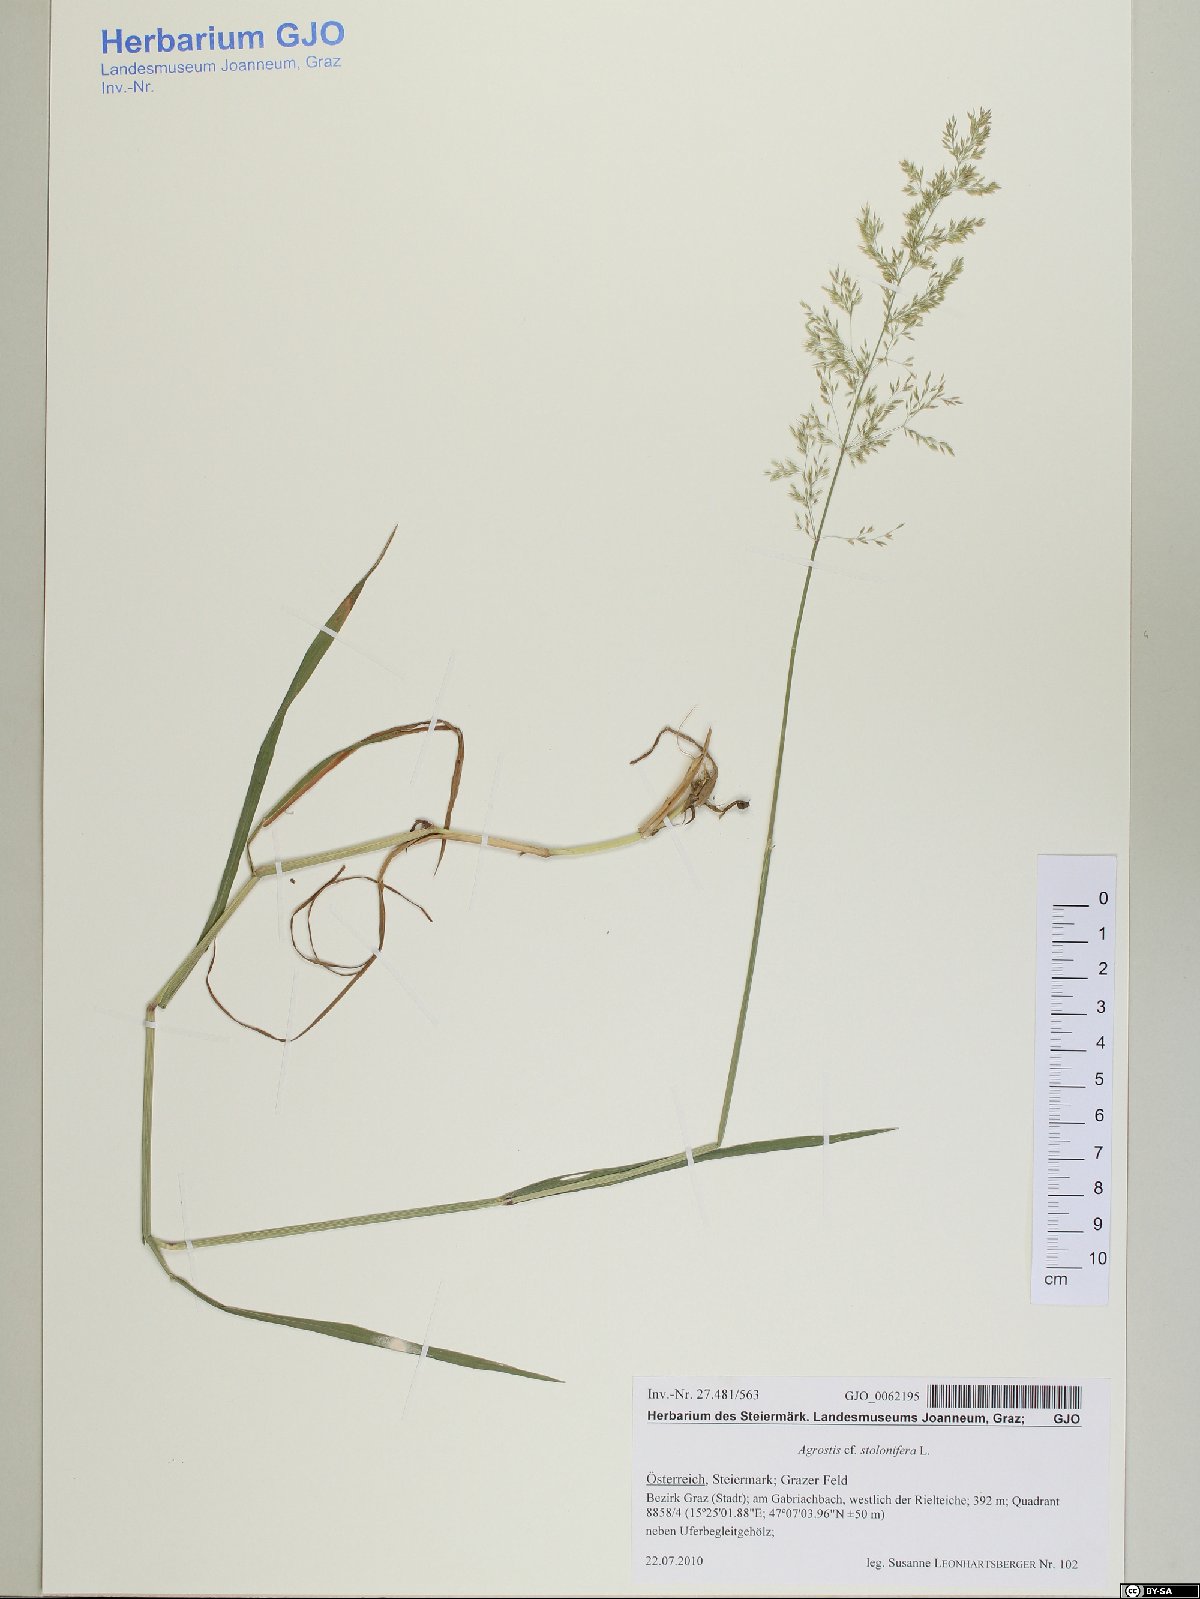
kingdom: Plantae
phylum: Tracheophyta
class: Liliopsida
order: Poales
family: Poaceae
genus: Agrostis
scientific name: Agrostis stolonifera
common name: Creeping bentgrass
